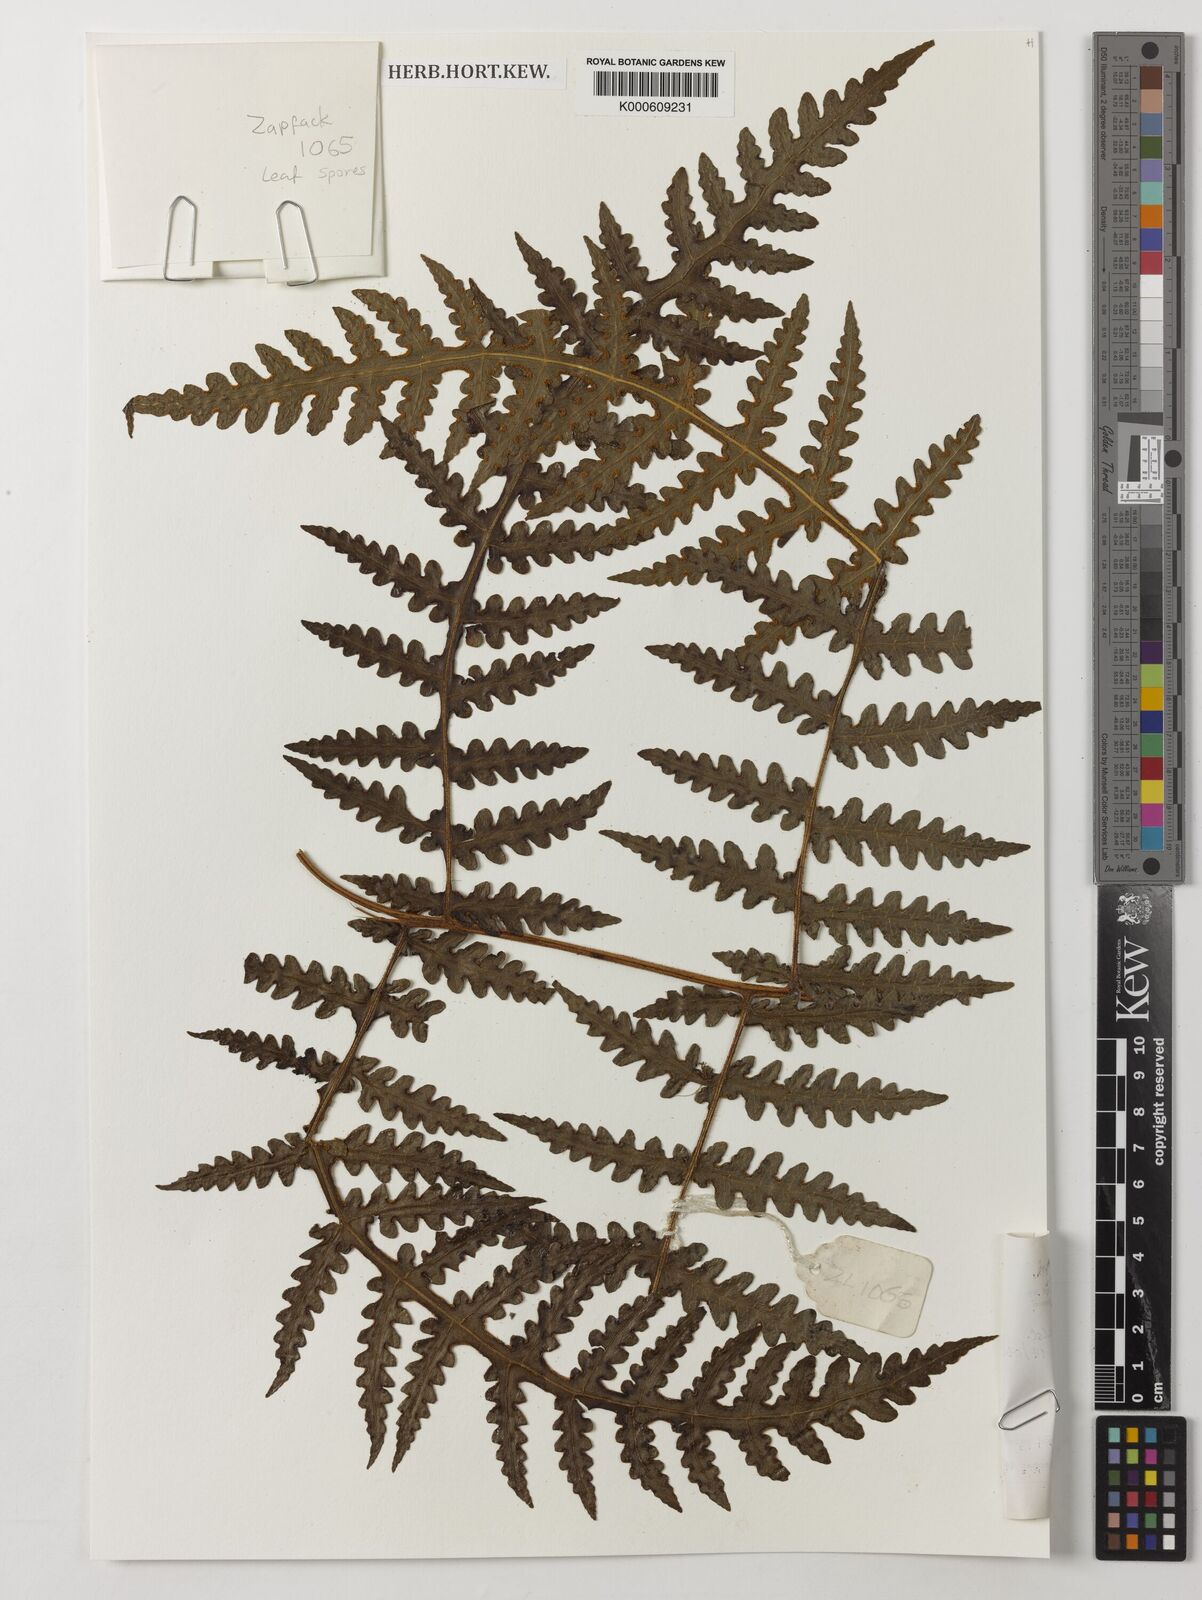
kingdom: Plantae
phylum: Tracheophyta
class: Polypodiopsida
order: Polypodiales
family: Dennstaedtiaceae
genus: Blotiella
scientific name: Blotiella glabra
